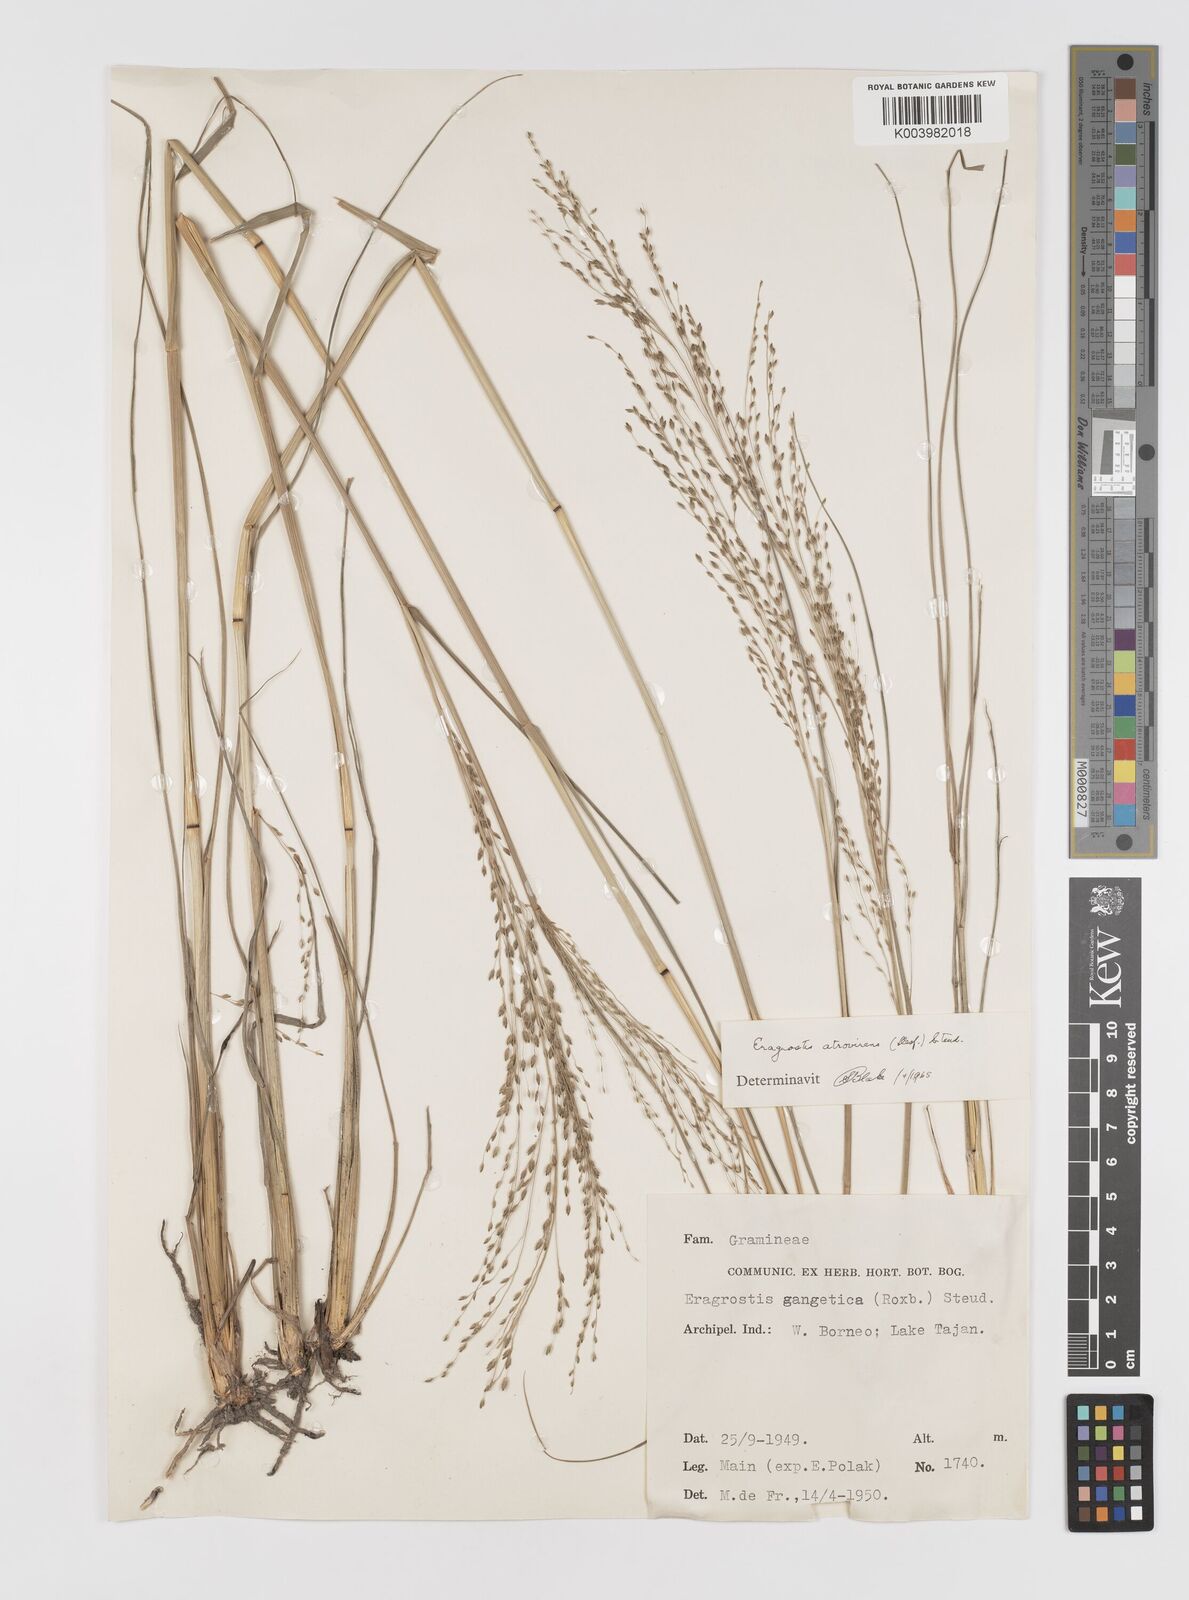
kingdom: Plantae
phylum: Tracheophyta
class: Liliopsida
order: Poales
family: Poaceae
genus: Eragrostis
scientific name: Eragrostis atrovirens
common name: Thalia lovegrass
